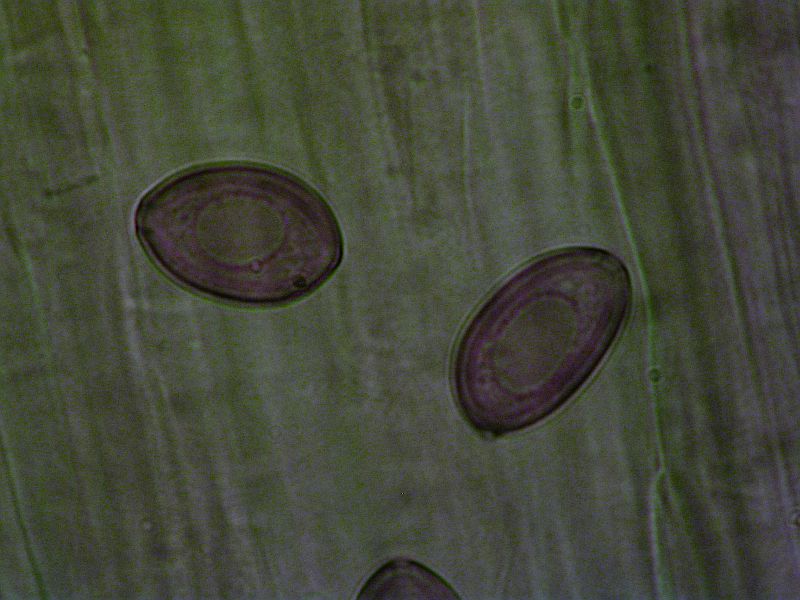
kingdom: Fungi
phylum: Basidiomycota
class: Agaricomycetes
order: Agaricales
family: Bolbitiaceae
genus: Conocybe
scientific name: Conocybe alboradicans
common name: rod-keglehat
